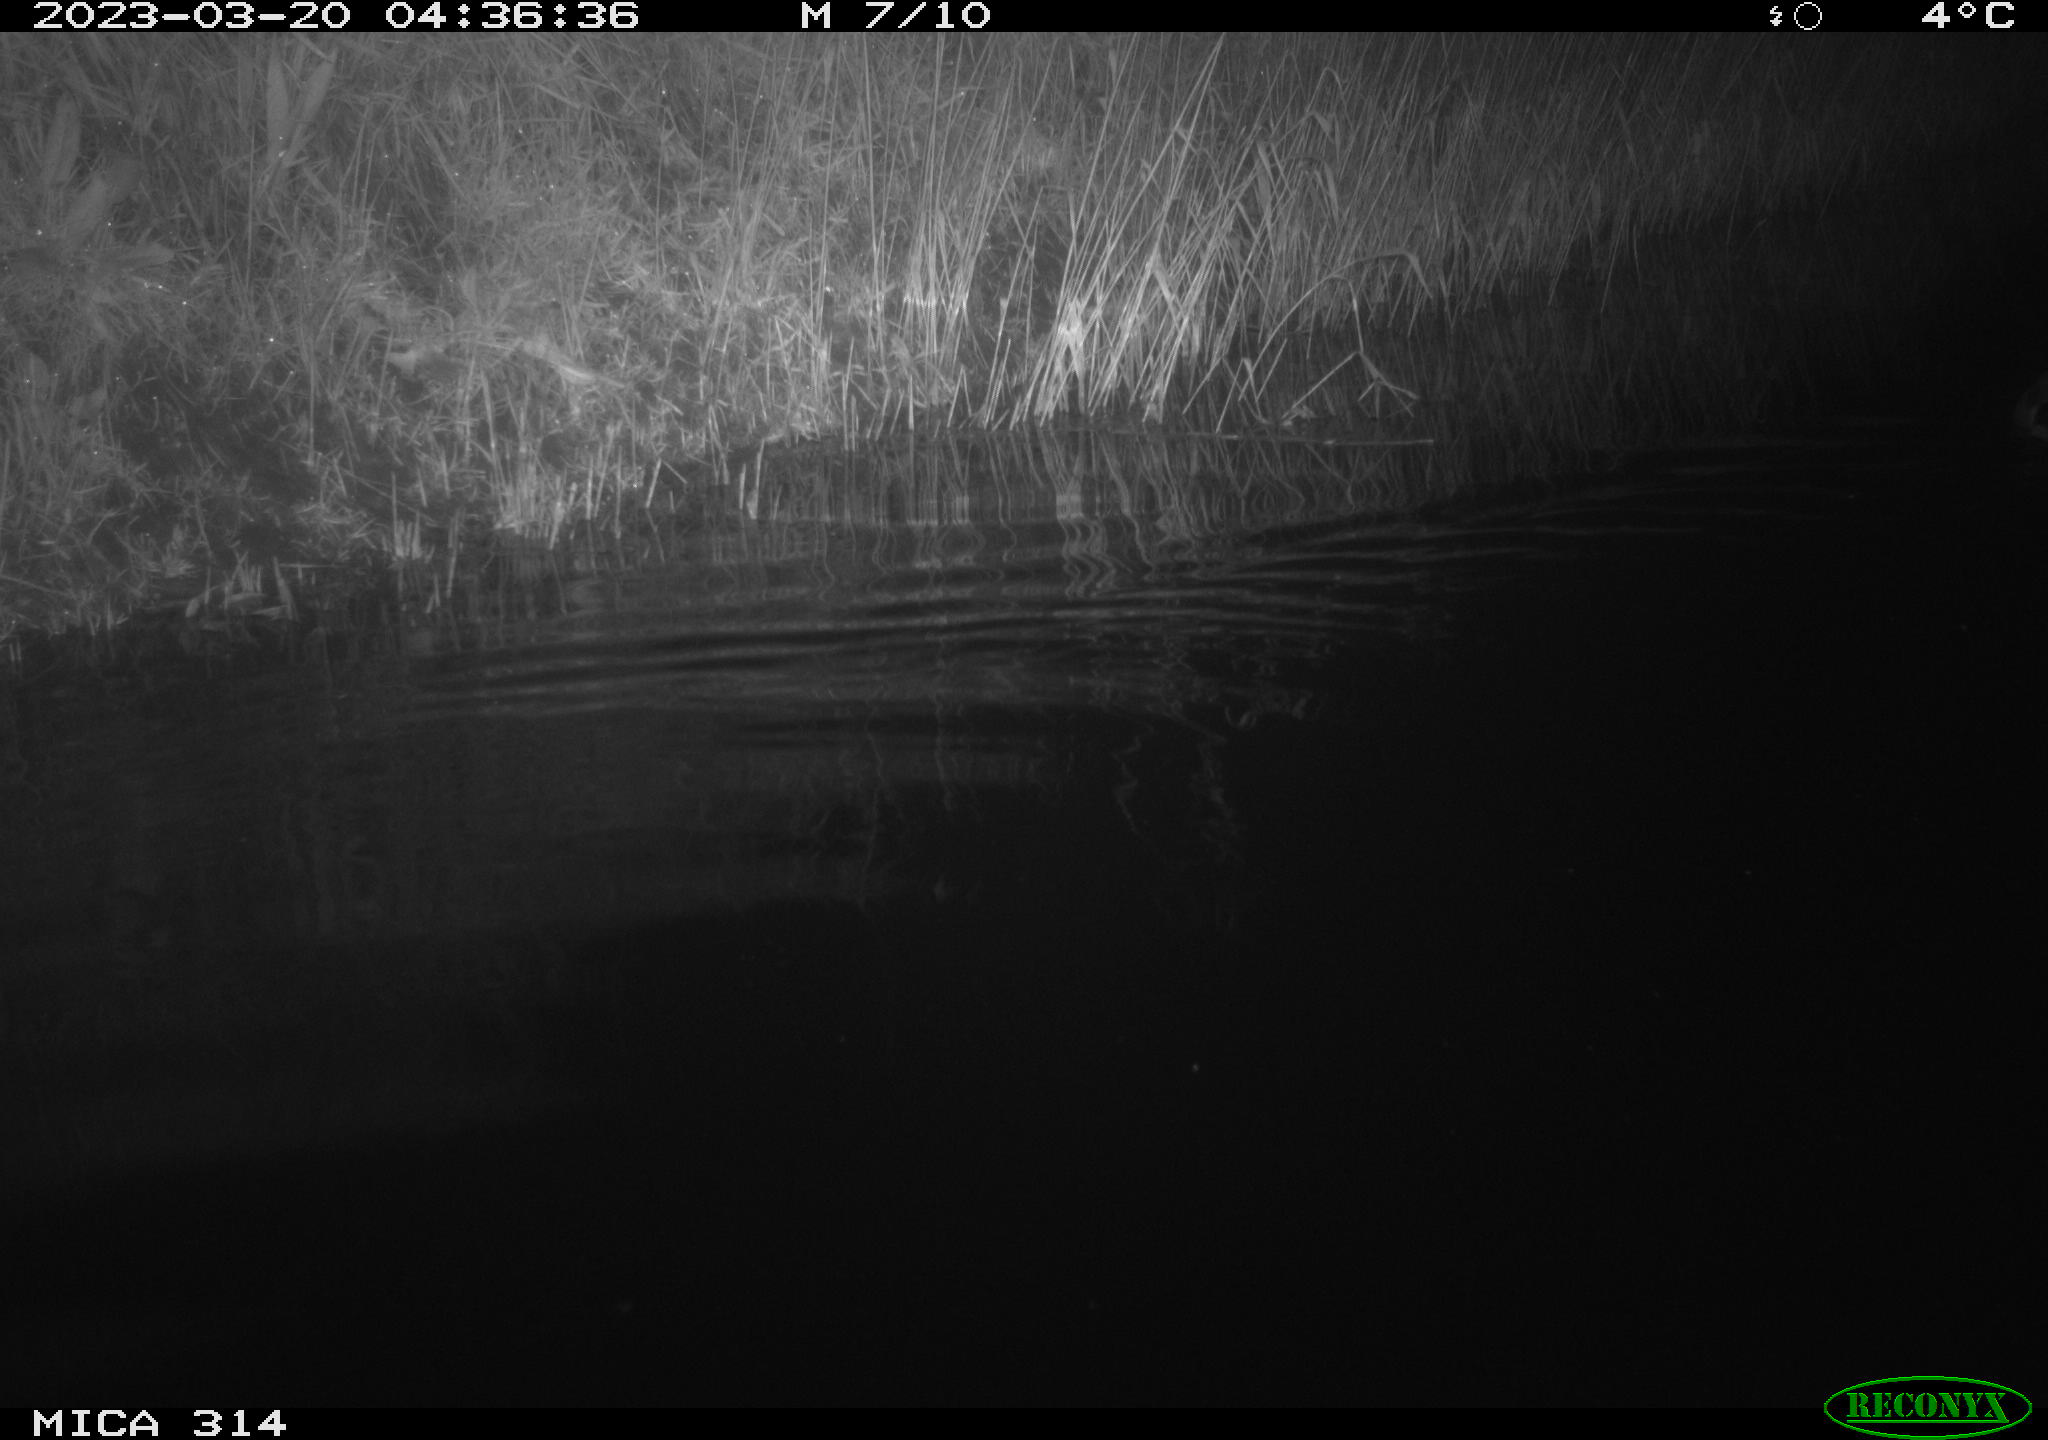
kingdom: Animalia
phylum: Chordata
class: Aves
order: Anseriformes
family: Anatidae
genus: Anas
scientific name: Anas
